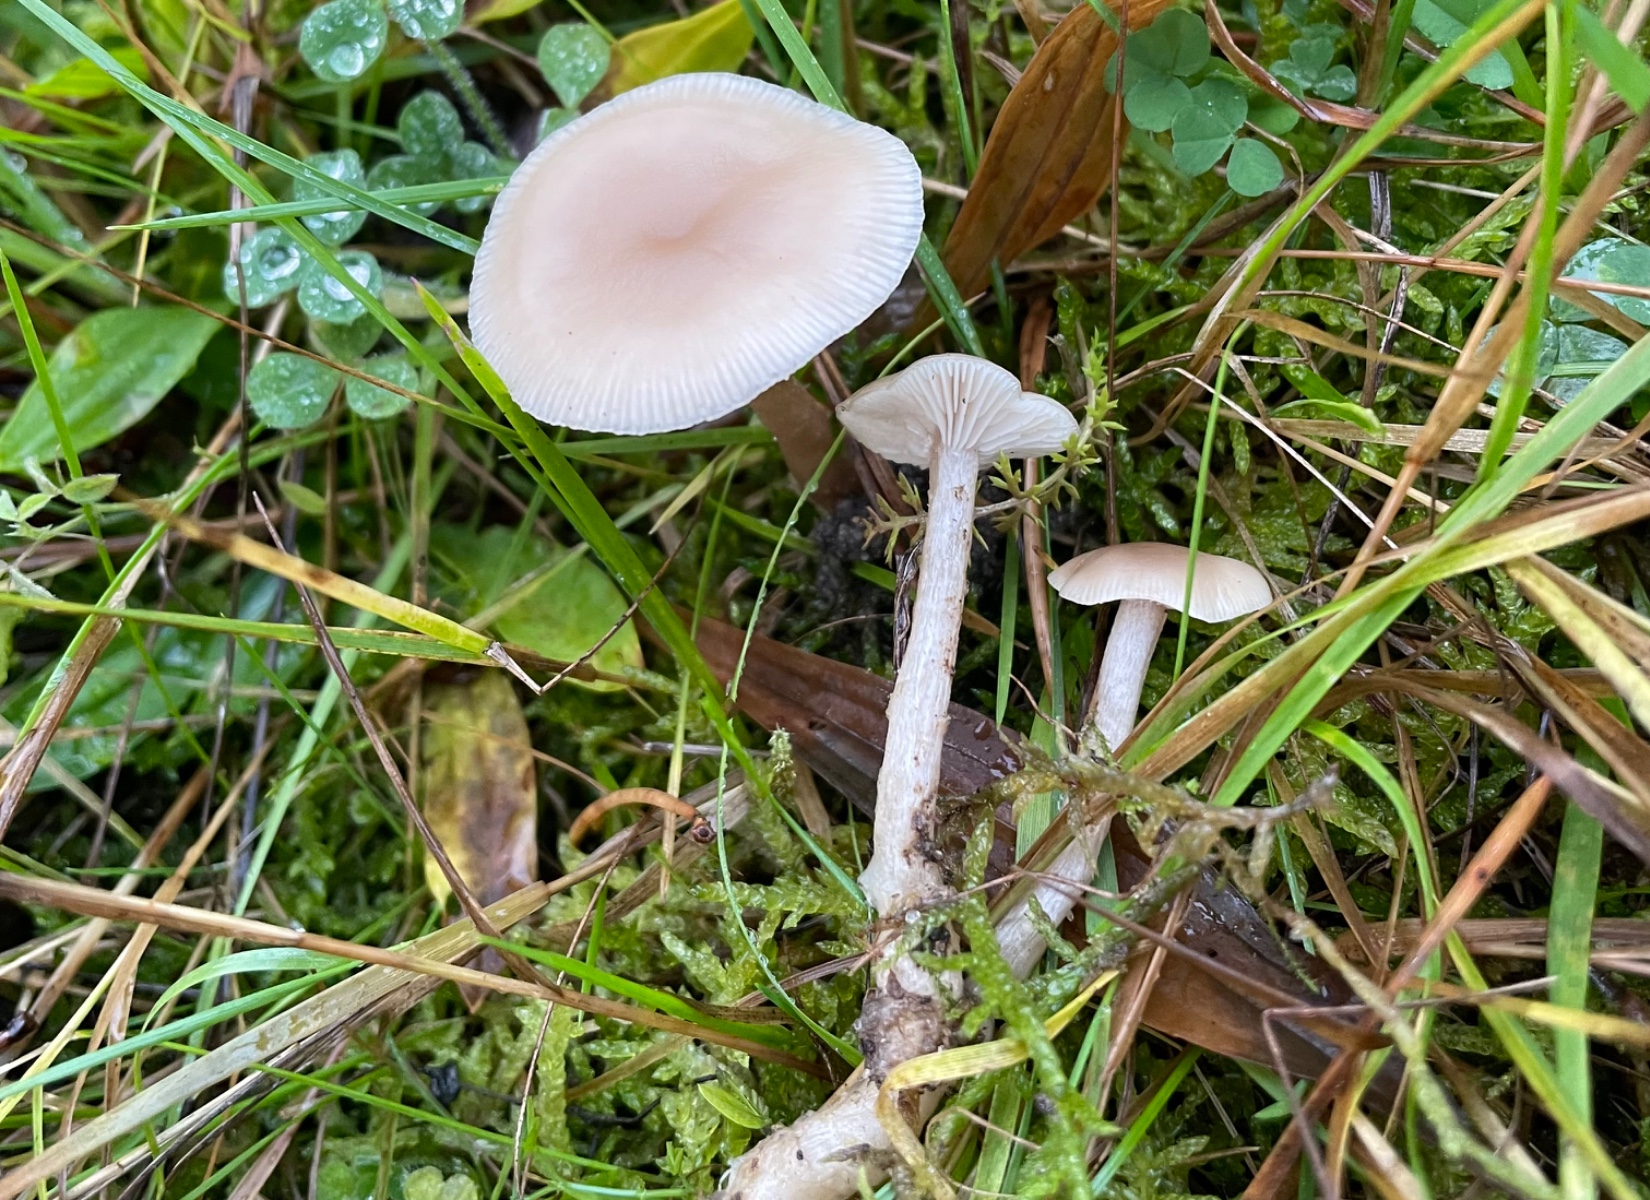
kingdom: Fungi
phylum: Basidiomycota
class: Agaricomycetes
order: Agaricales
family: Tricholomataceae
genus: Clitocybe
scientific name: Clitocybe fragrans
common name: vellugtende tragthat
